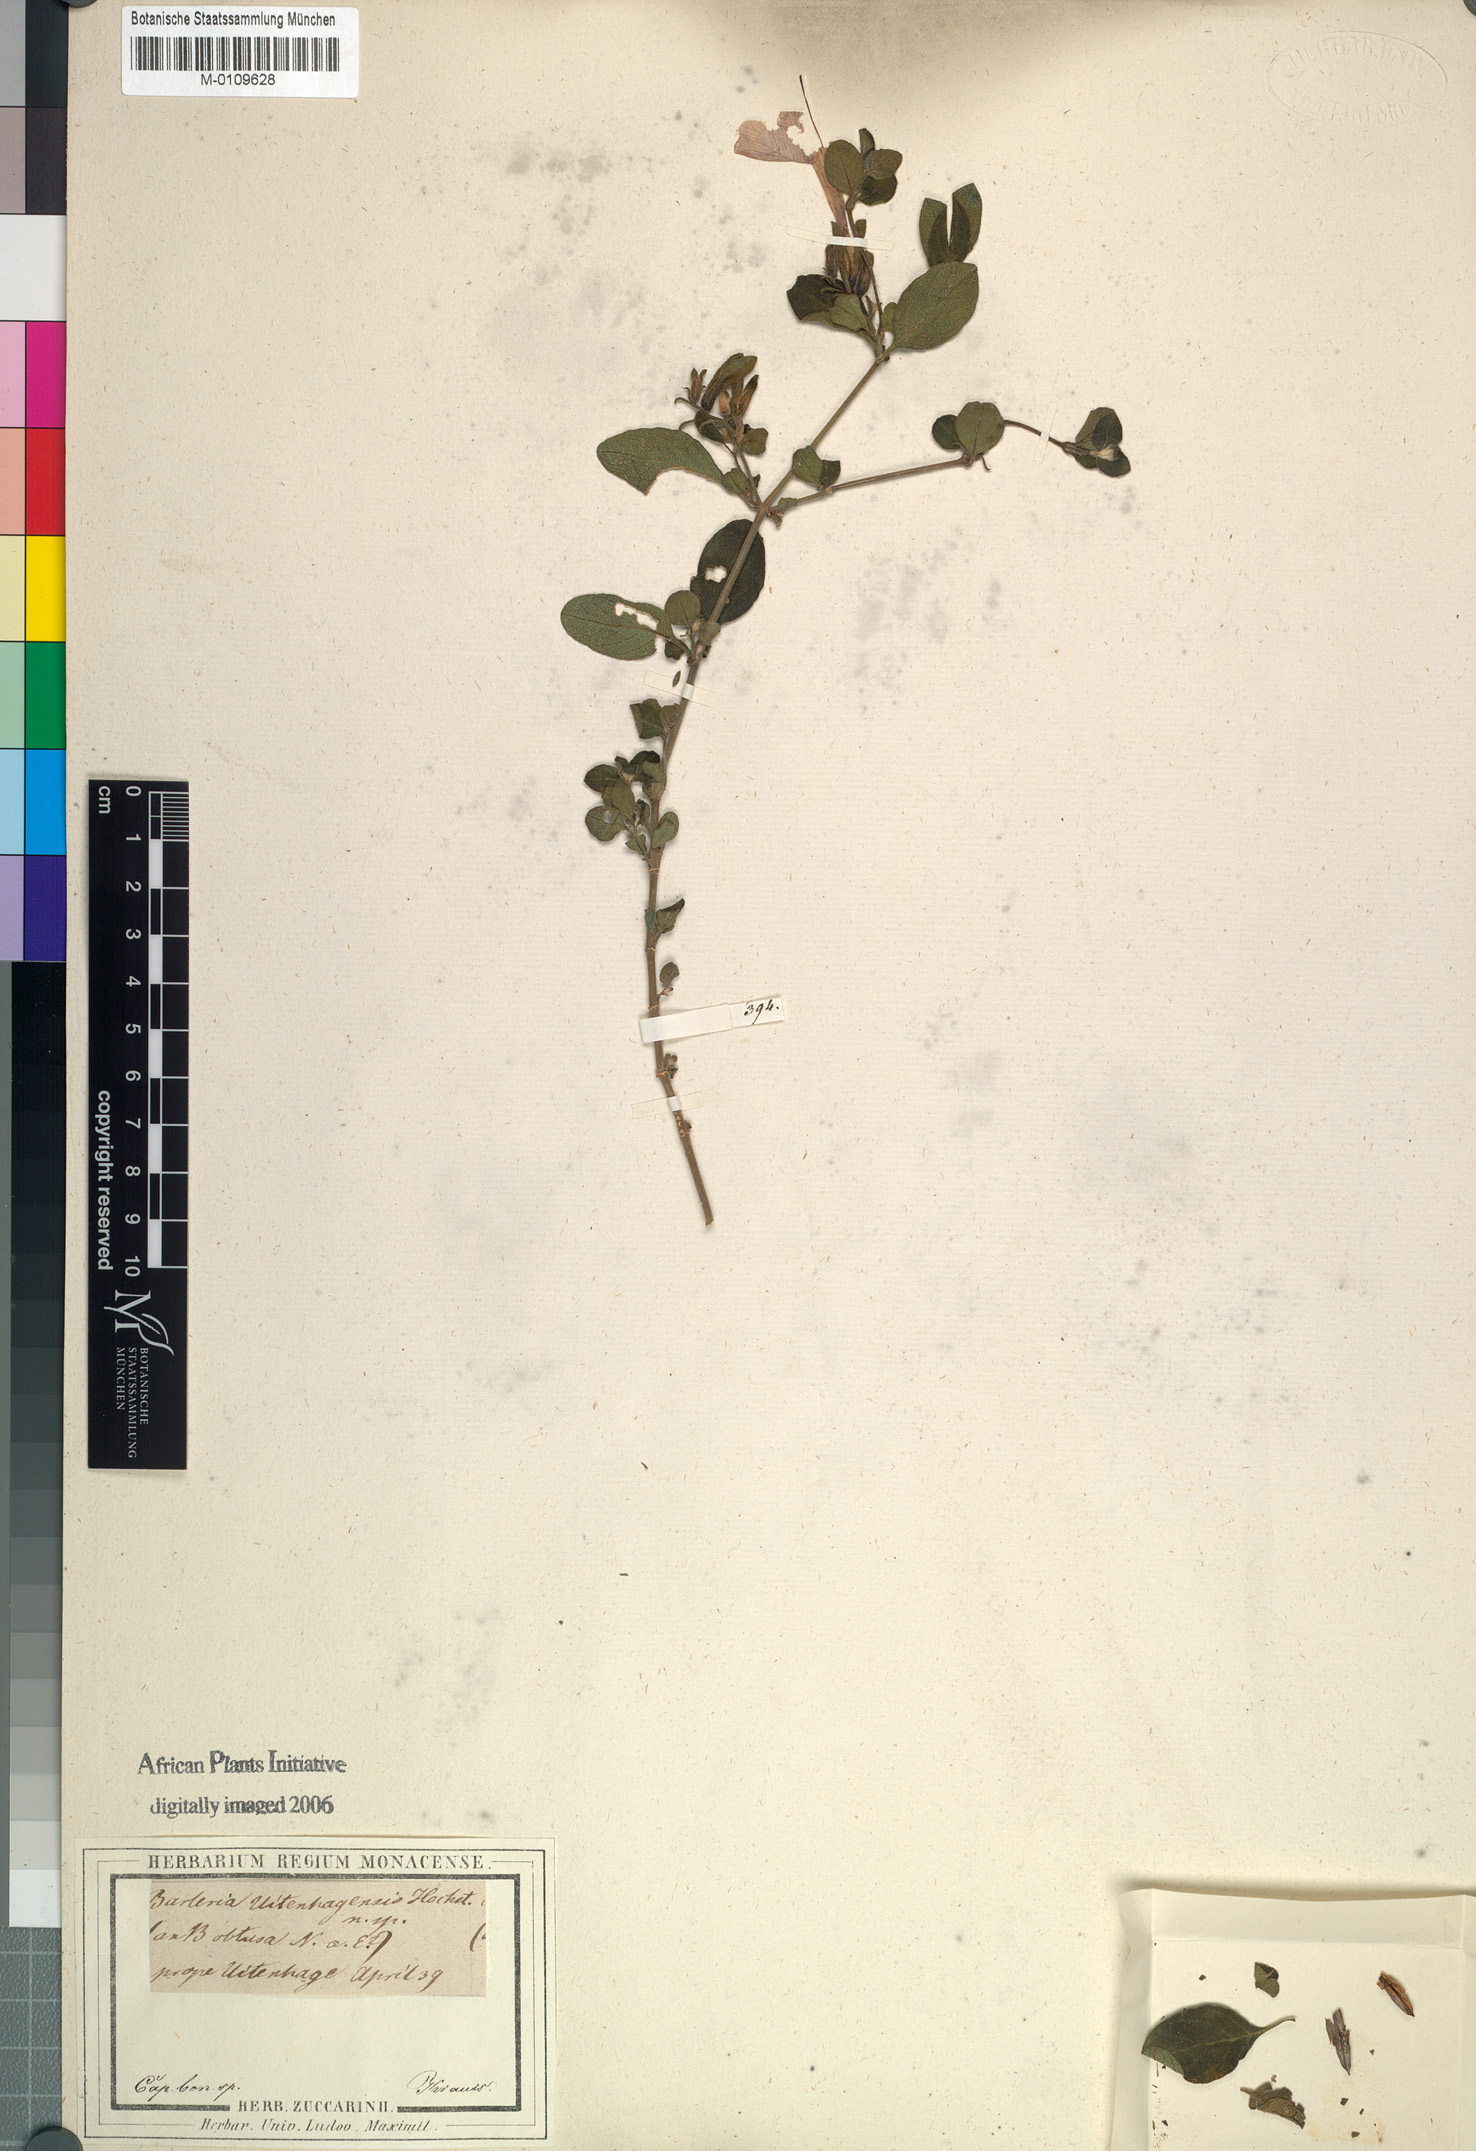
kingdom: Plantae
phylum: Tracheophyta
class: Magnoliopsida
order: Lamiales
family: Acanthaceae
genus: Barleria
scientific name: Barleria obtusa
